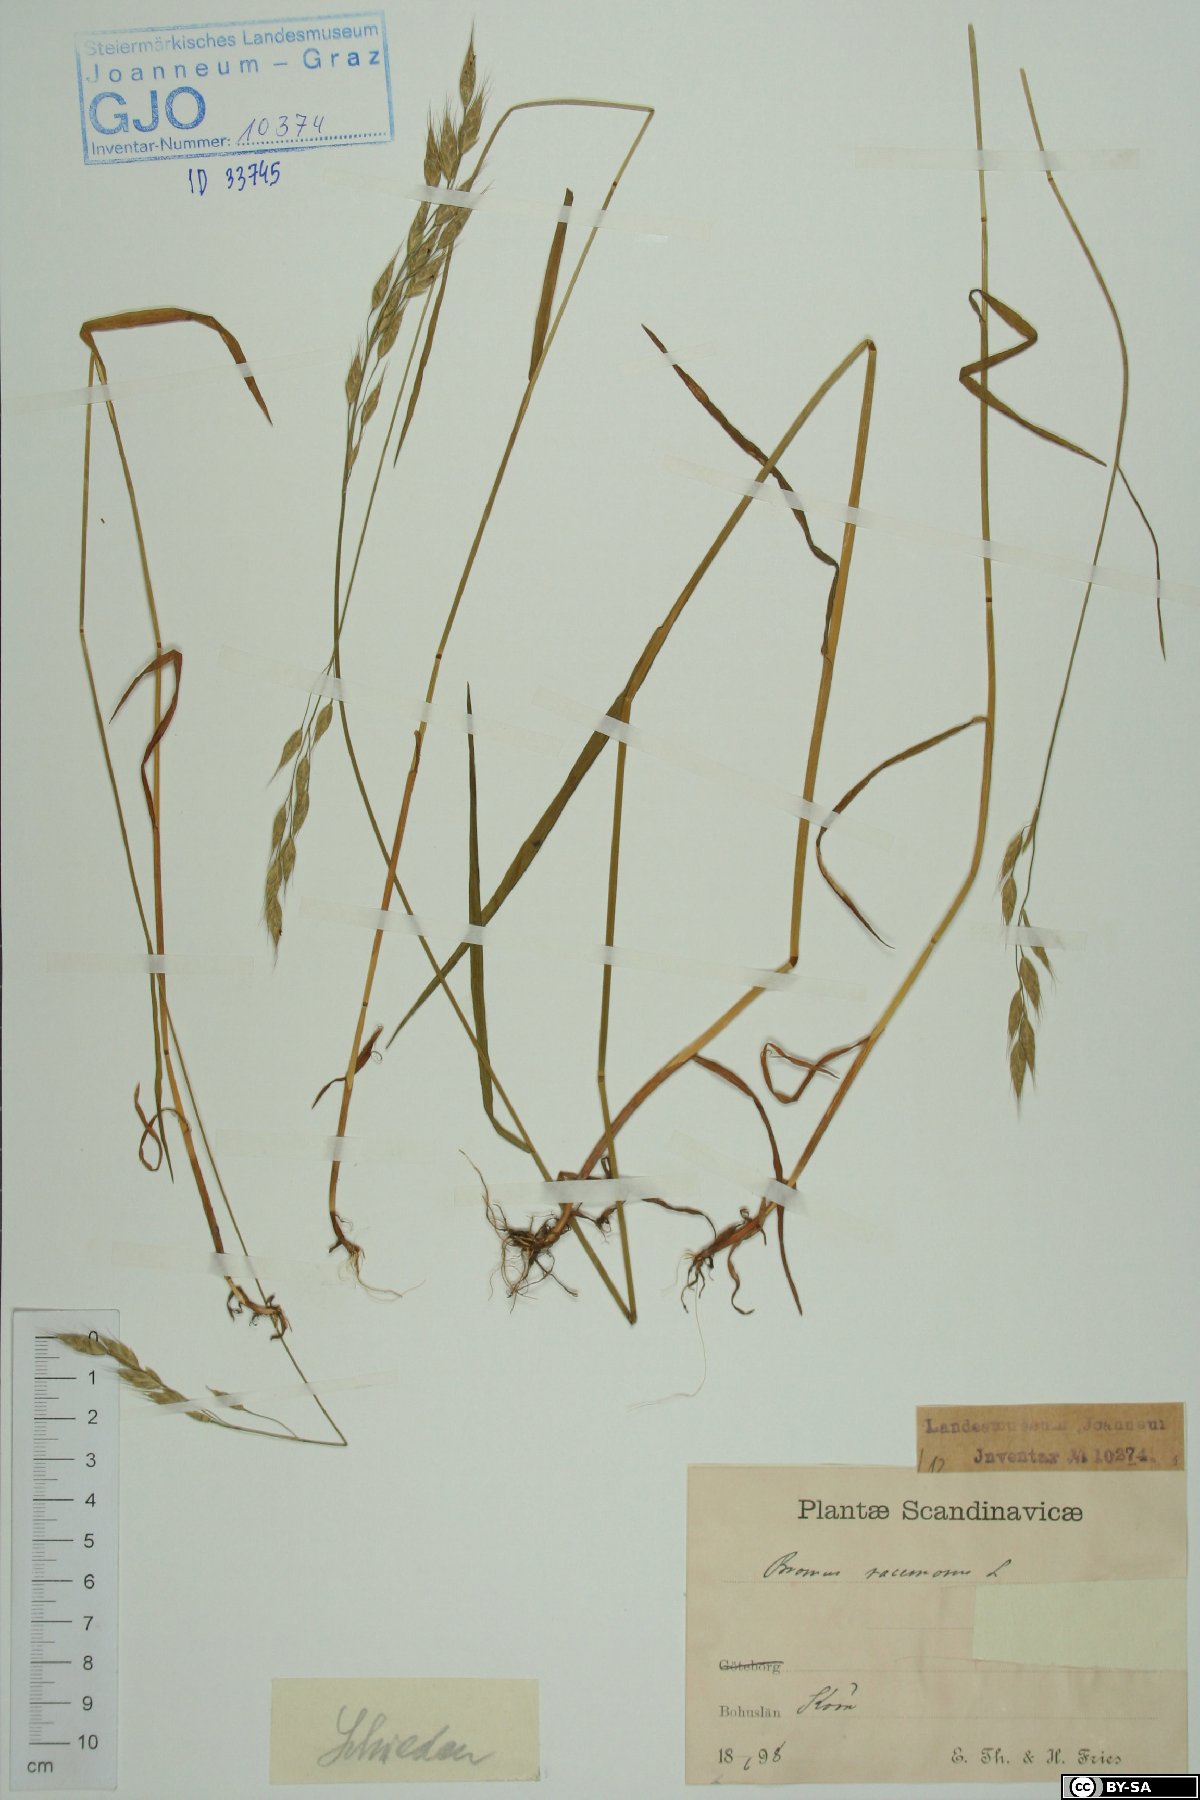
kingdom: Plantae
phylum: Tracheophyta
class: Liliopsida
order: Poales
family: Poaceae
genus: Bromus
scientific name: Bromus racemosus
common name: Bald brome
